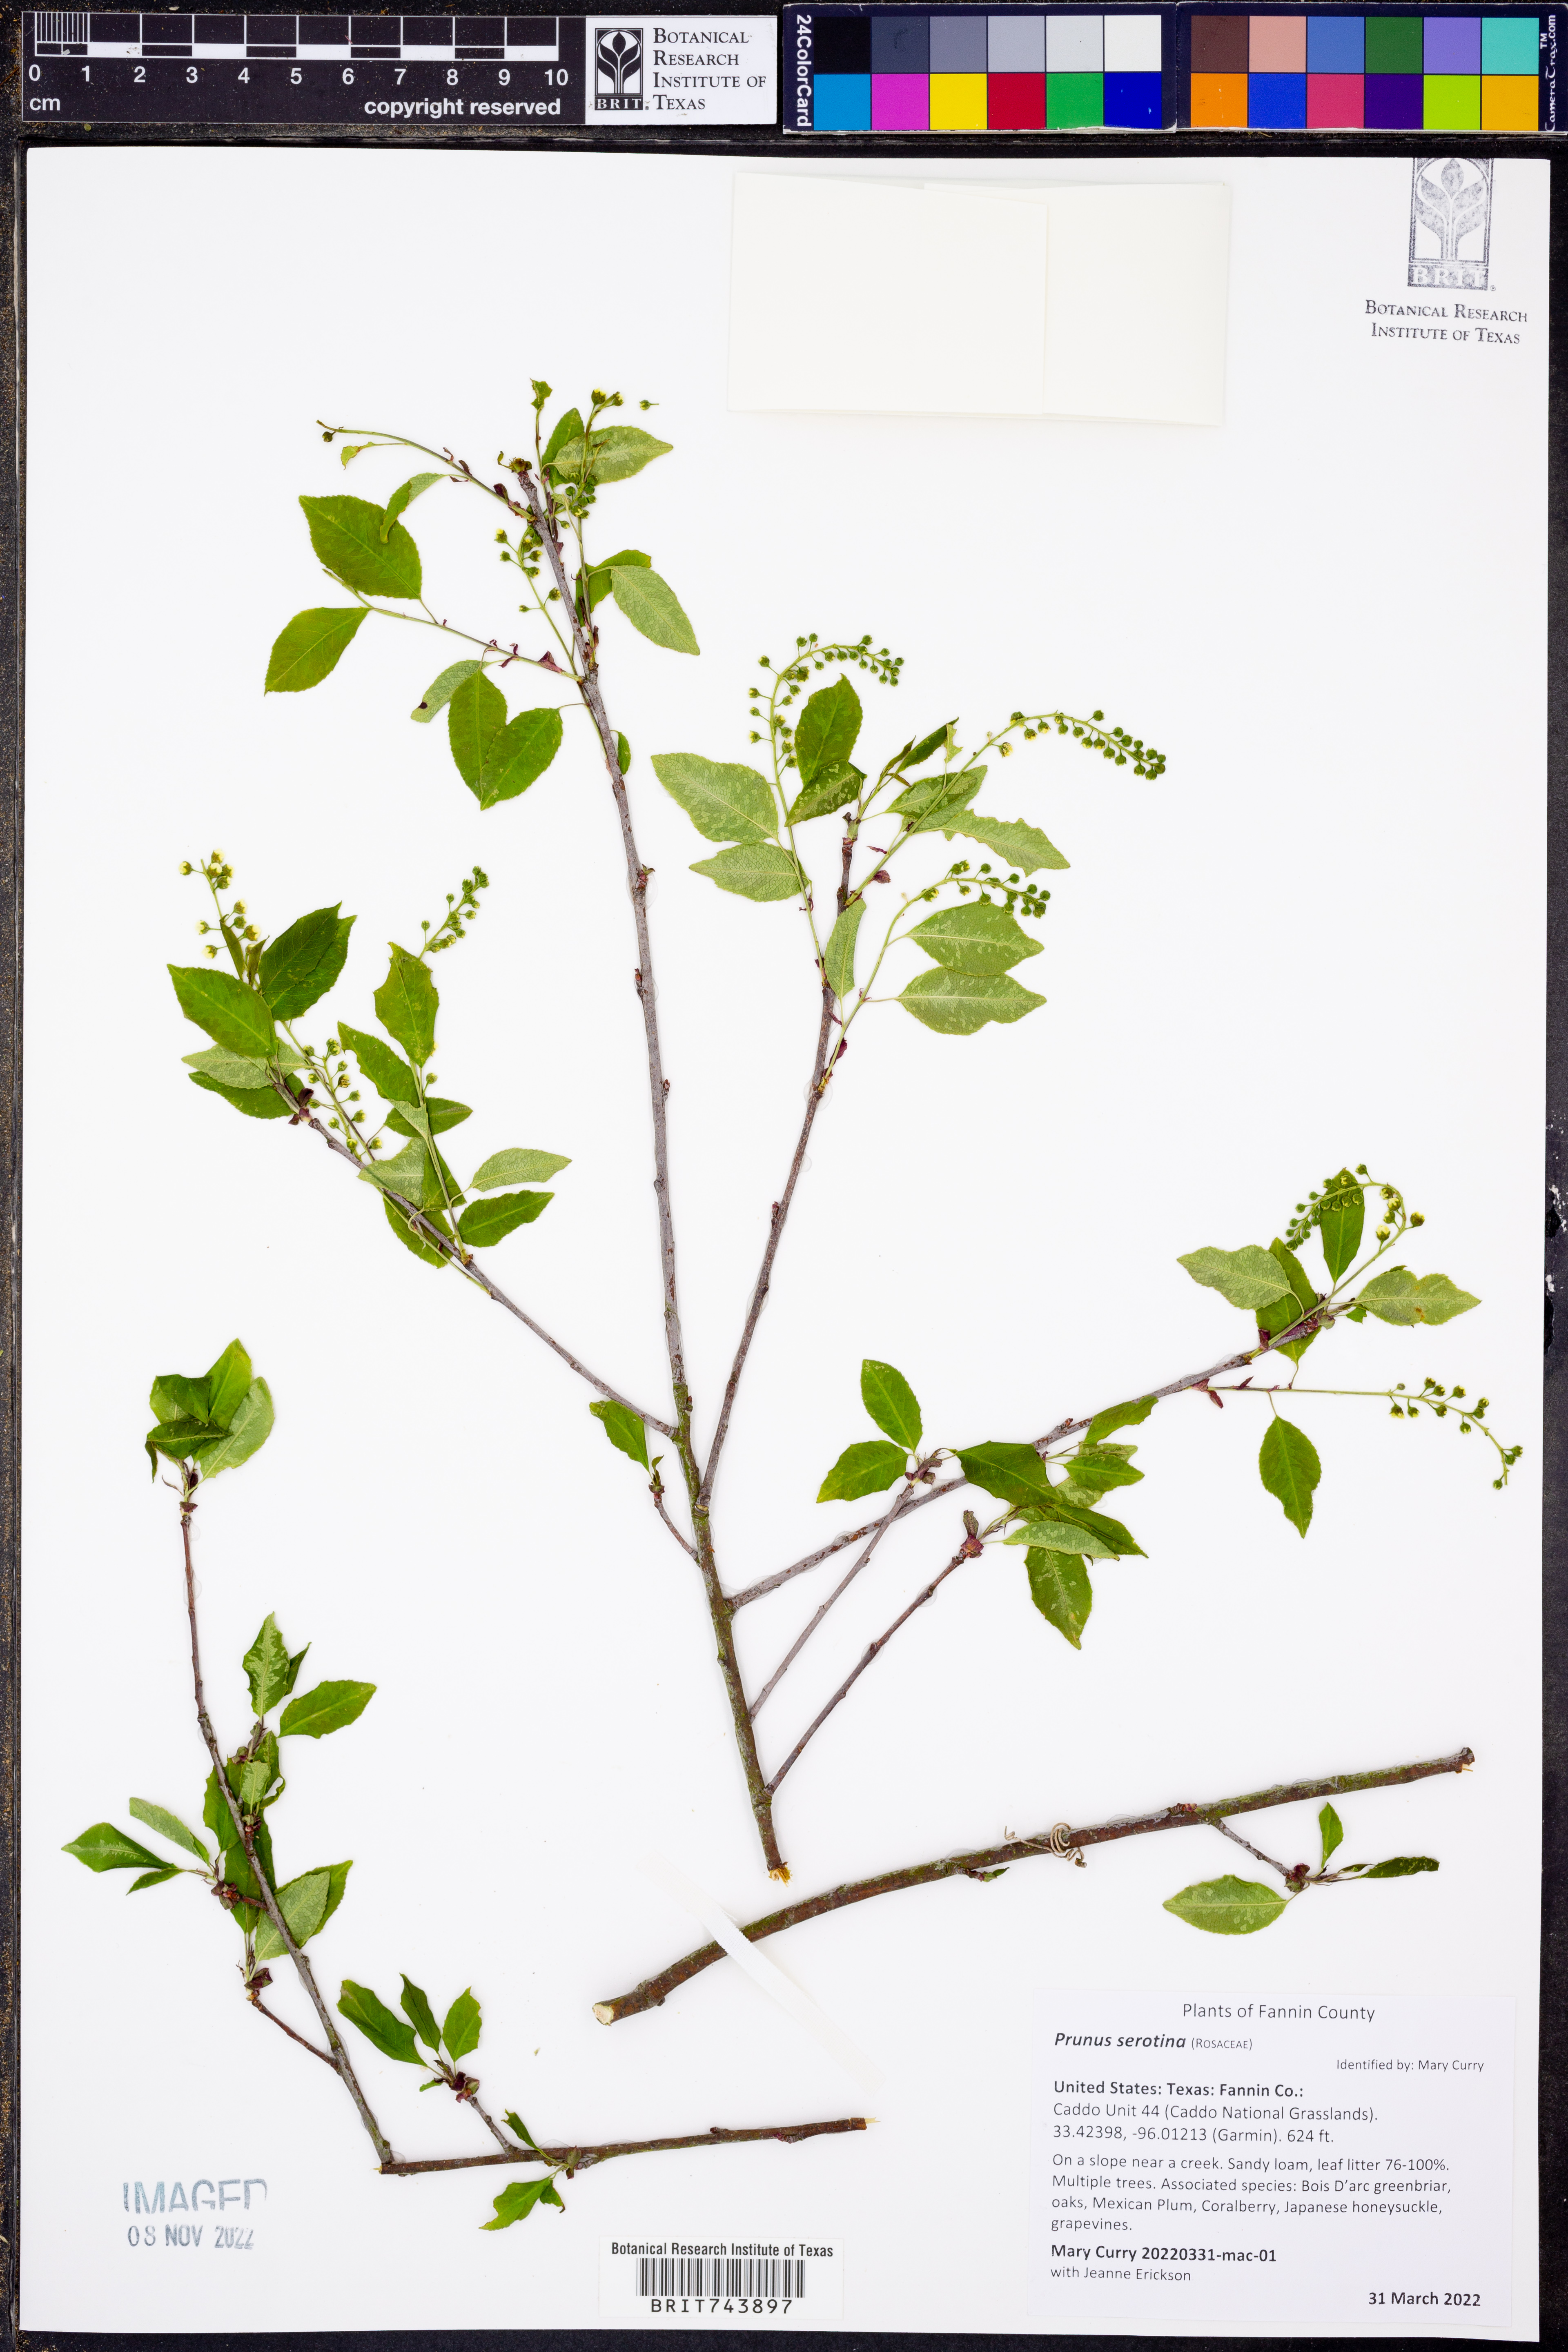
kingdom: Plantae
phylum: Tracheophyta
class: Magnoliopsida
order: Rosales
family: Rosaceae
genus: Prunus
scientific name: Prunus serotina
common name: Black cherry
